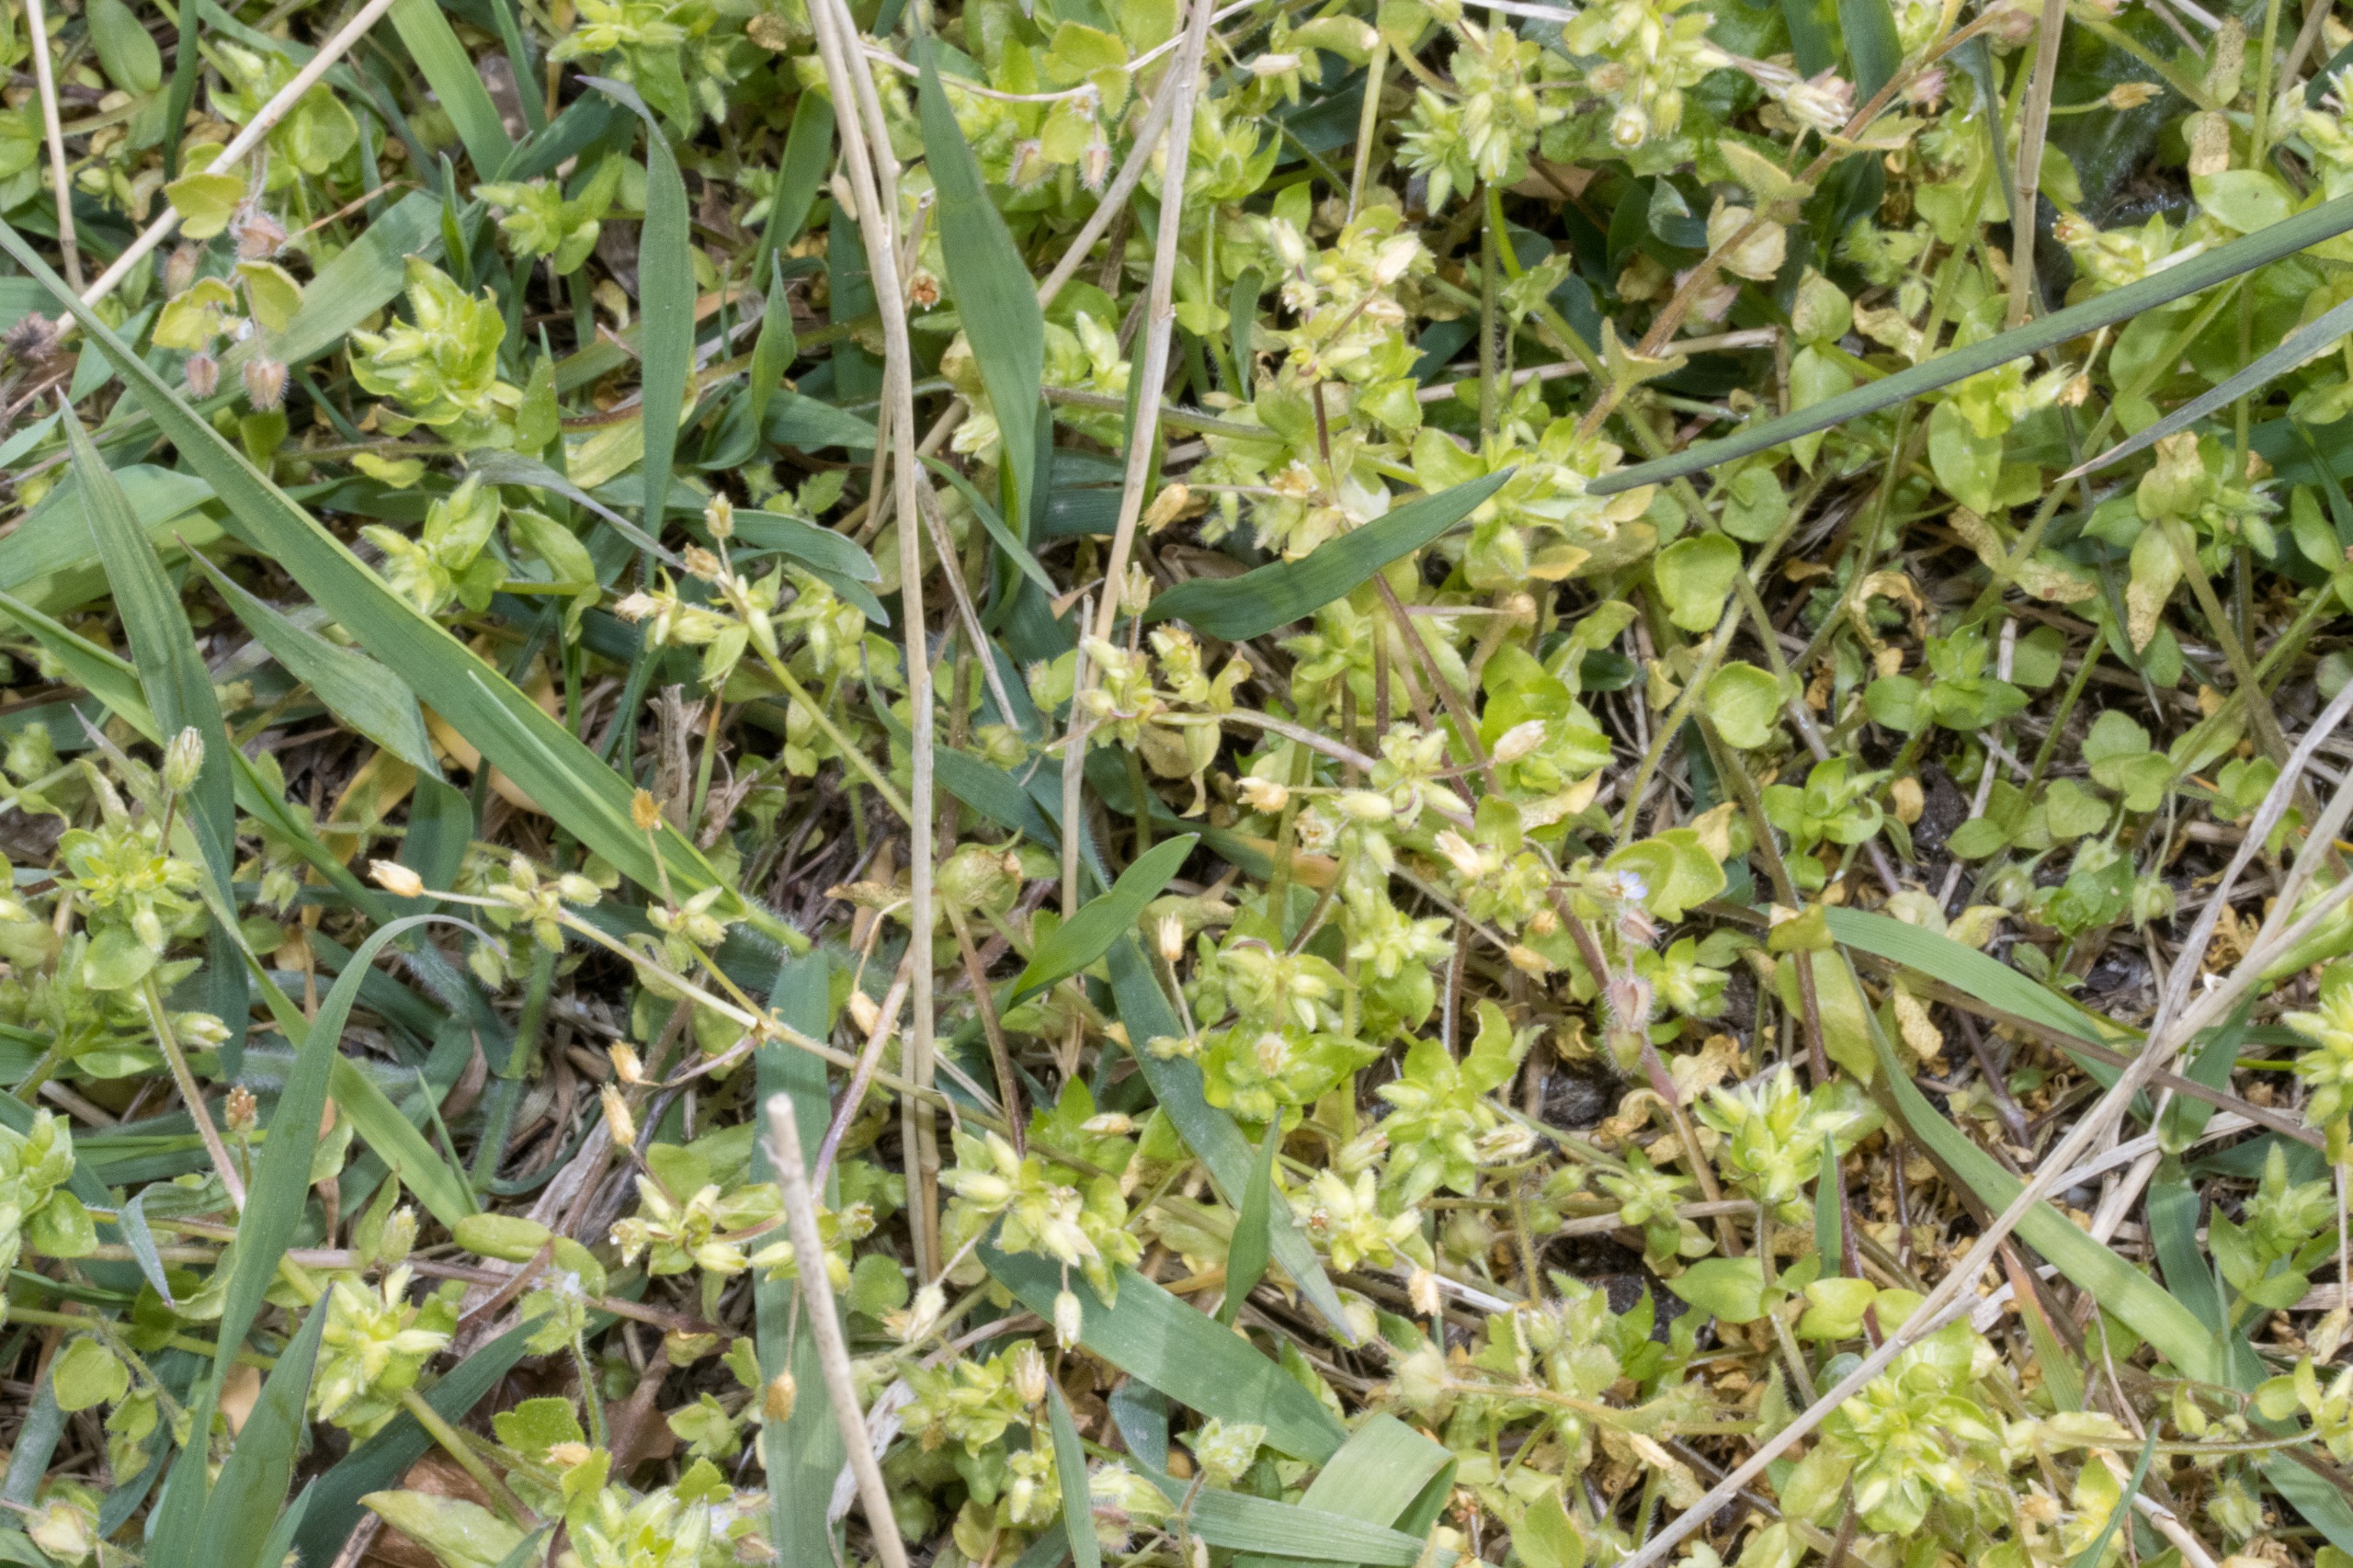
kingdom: Plantae
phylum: Tracheophyta
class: Magnoliopsida
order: Caryophyllales
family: Caryophyllaceae
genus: Stellaria
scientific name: Stellaria apetala
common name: Bleg fuglegræs
